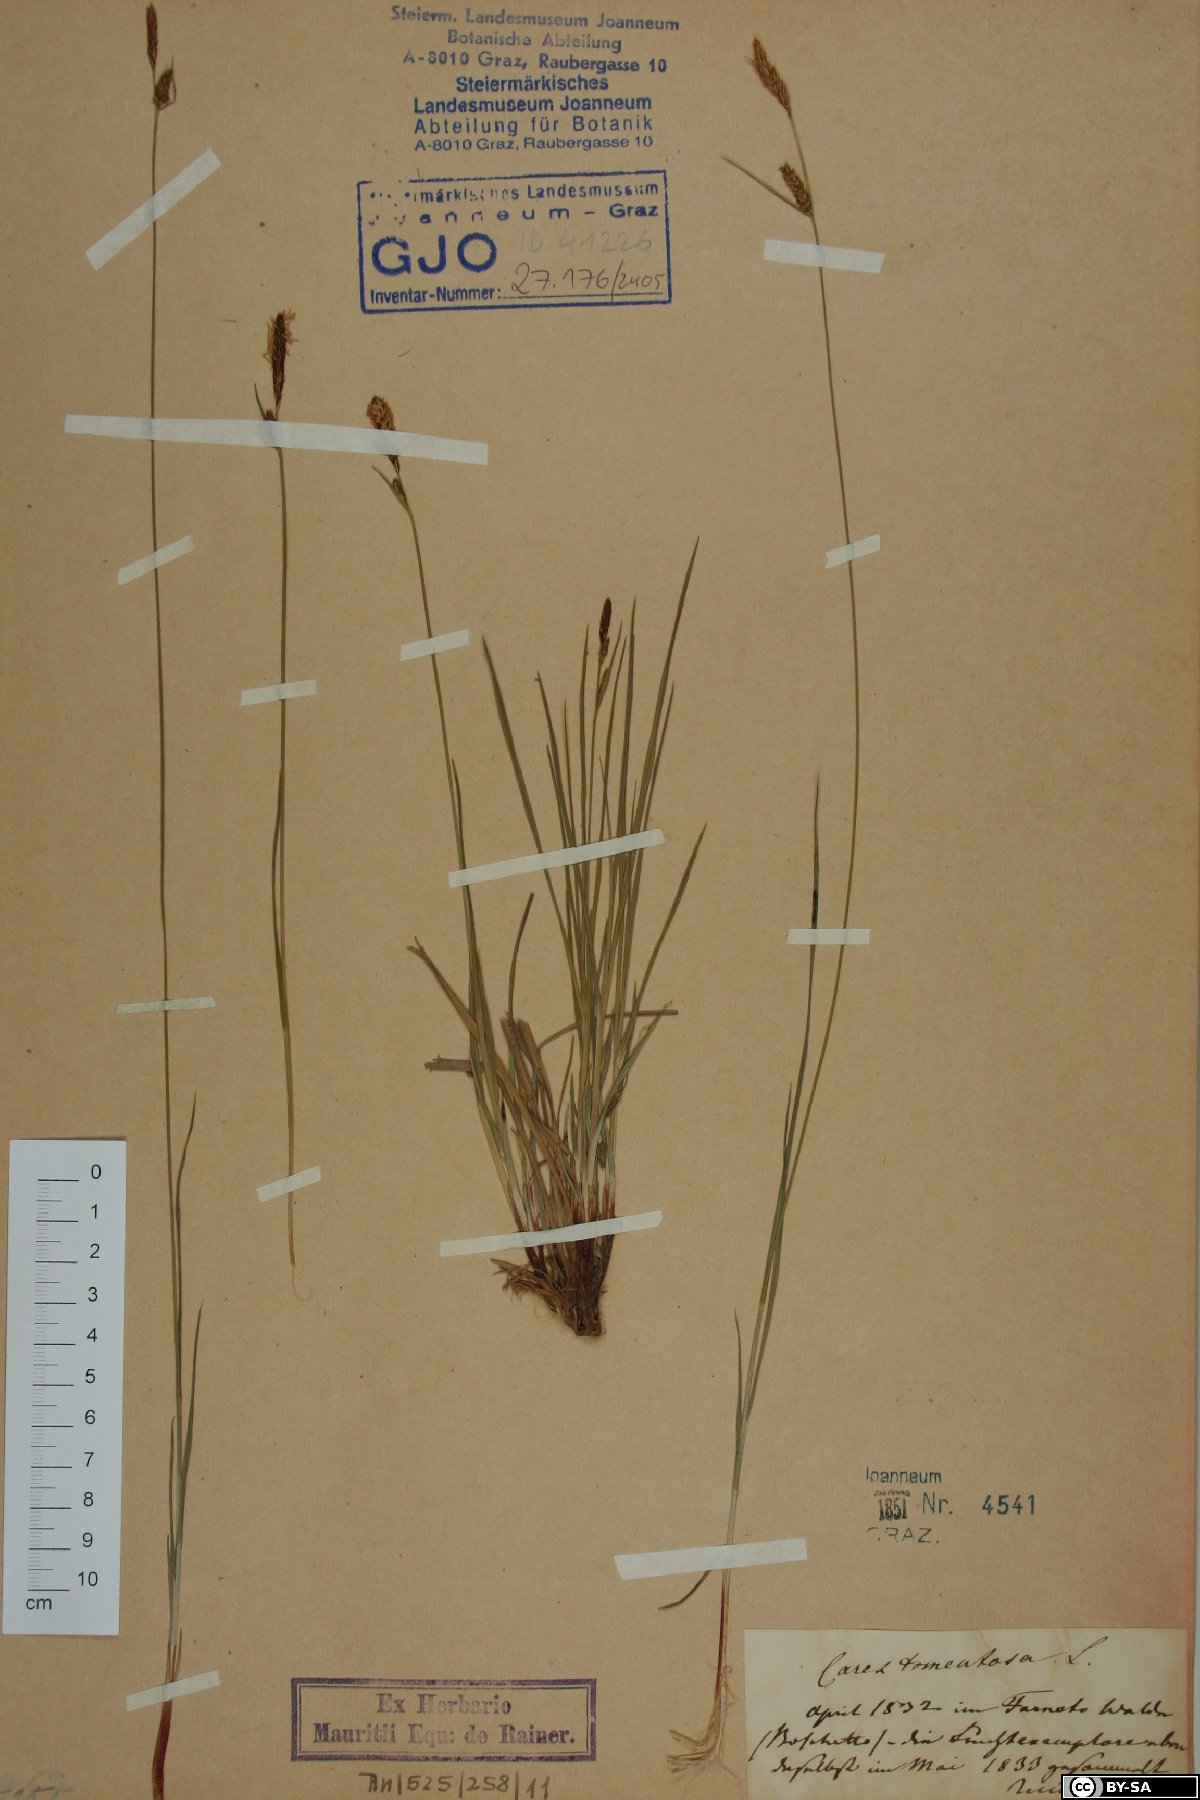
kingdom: Plantae
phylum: Tracheophyta
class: Liliopsida
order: Poales
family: Cyperaceae
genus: Carex
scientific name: Carex tomentosa
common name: Downy-fruited sedge
